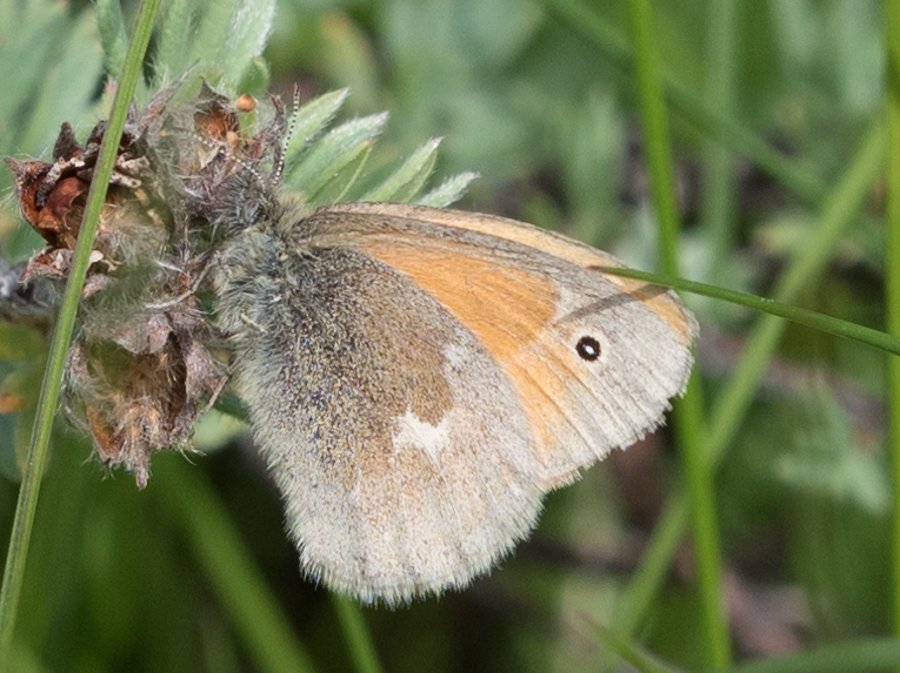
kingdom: Animalia
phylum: Arthropoda
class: Insecta
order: Lepidoptera
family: Nymphalidae
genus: Coenonympha
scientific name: Coenonympha tullia
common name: Large Heath
